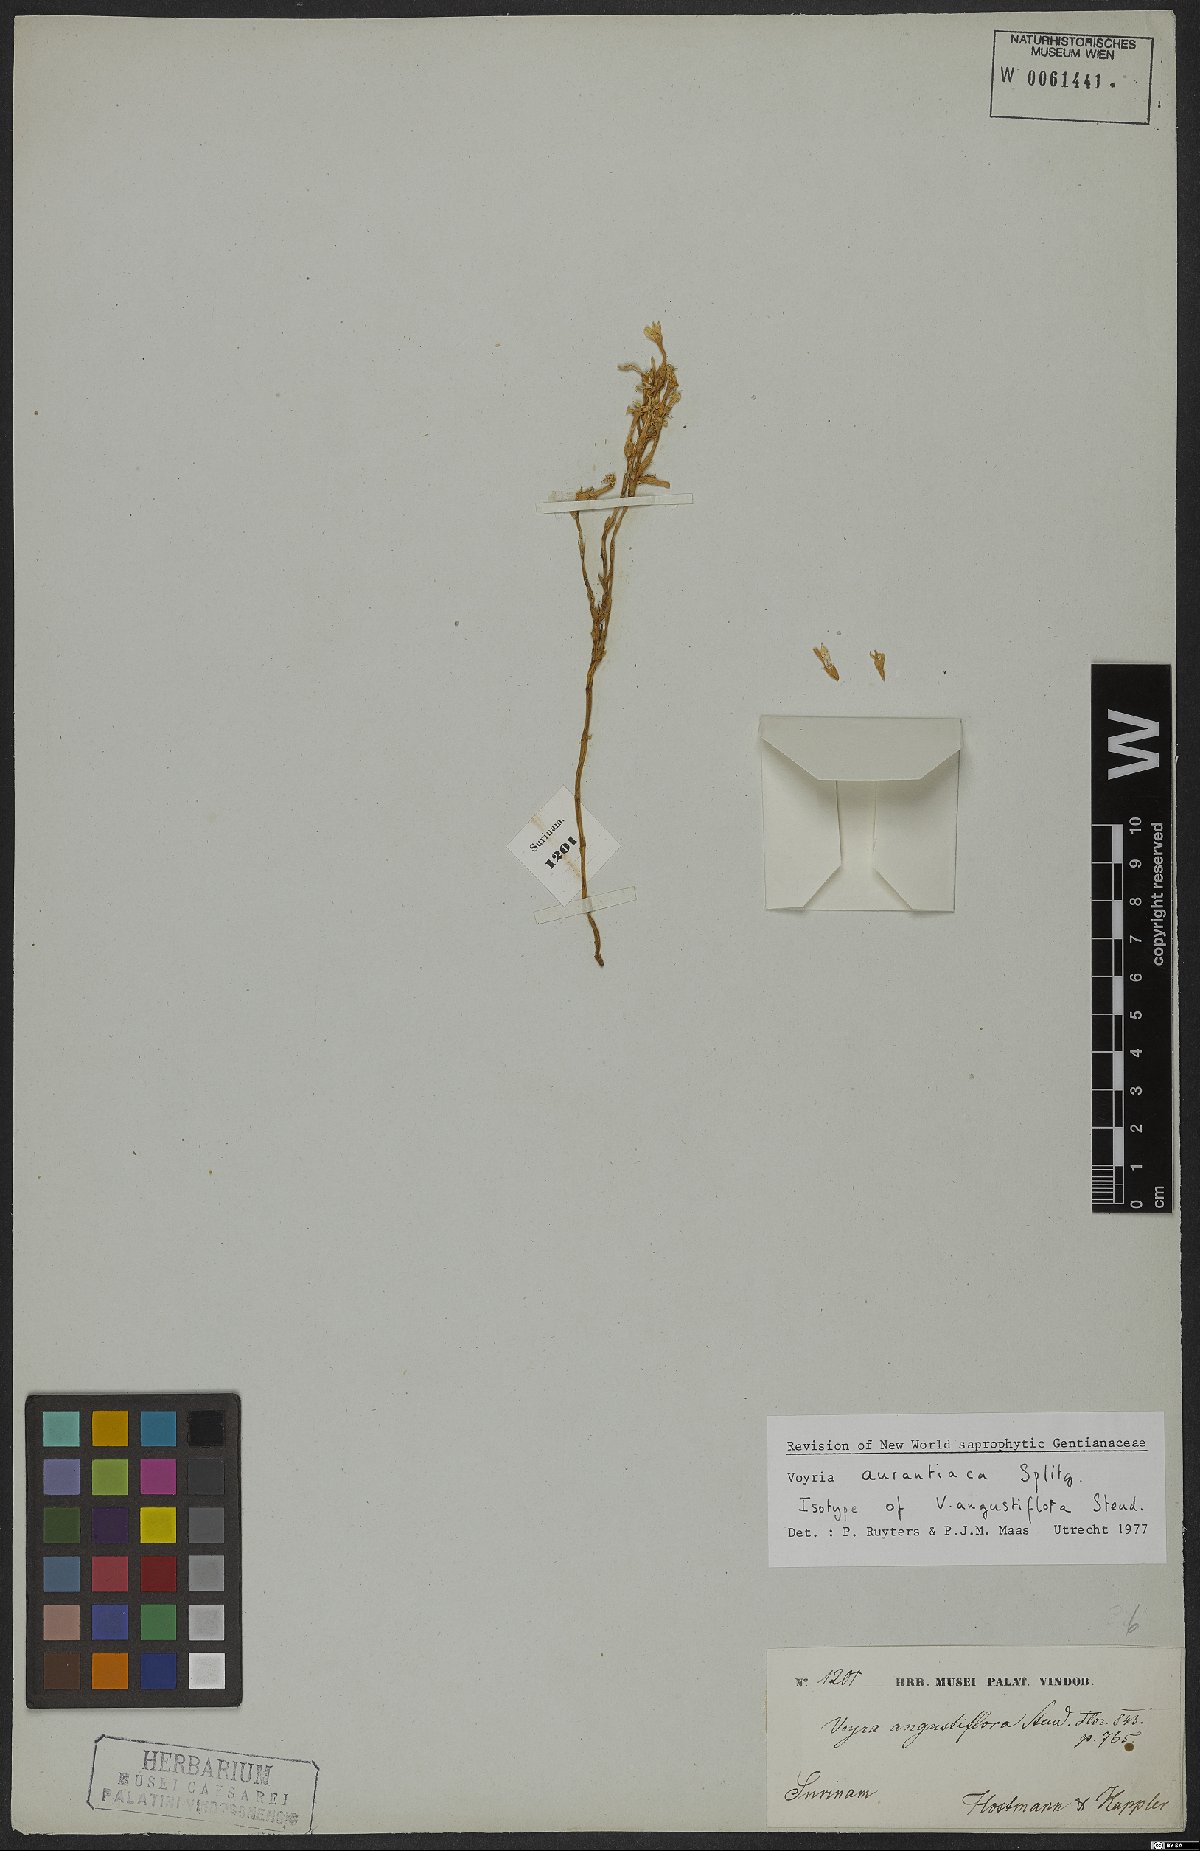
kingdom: Plantae
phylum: Tracheophyta
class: Magnoliopsida
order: Gentianales
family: Gentianaceae
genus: Voyria
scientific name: Voyria aurantiaca
